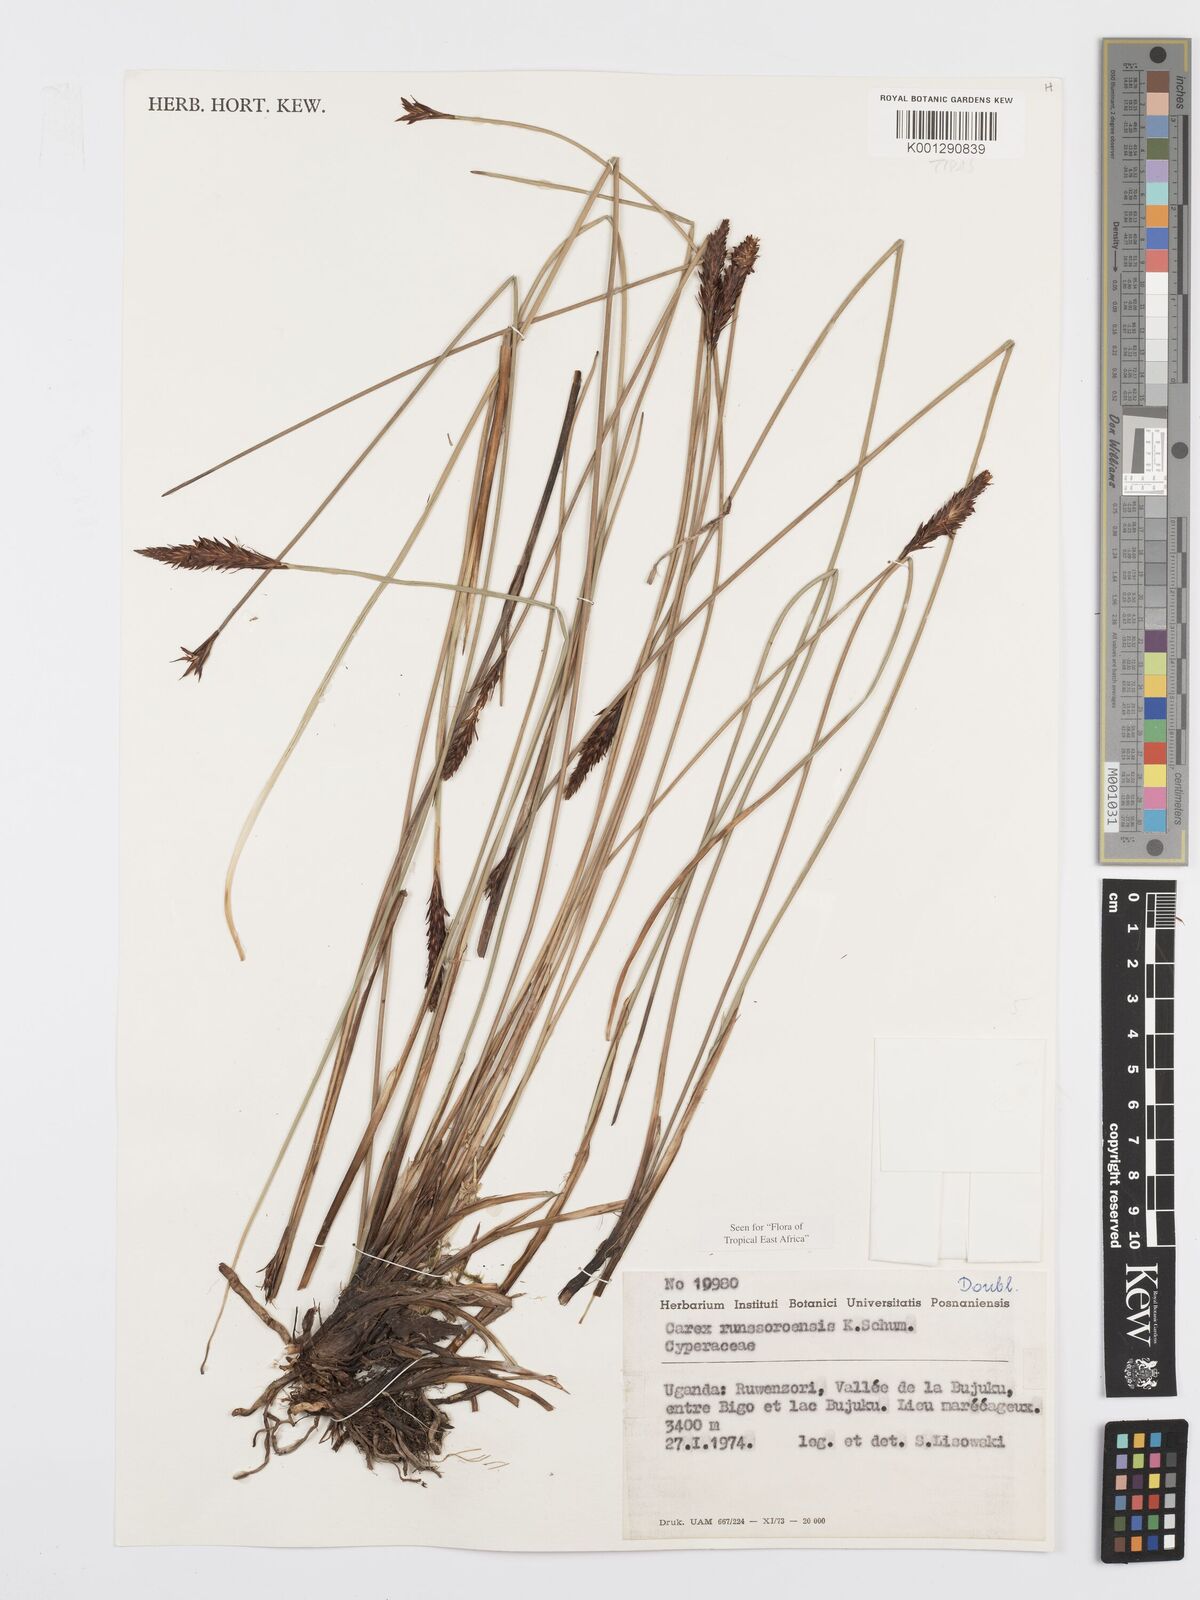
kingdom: Plantae
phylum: Tracheophyta
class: Liliopsida
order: Poales
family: Cyperaceae
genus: Carex
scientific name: Carex runssoroensis
